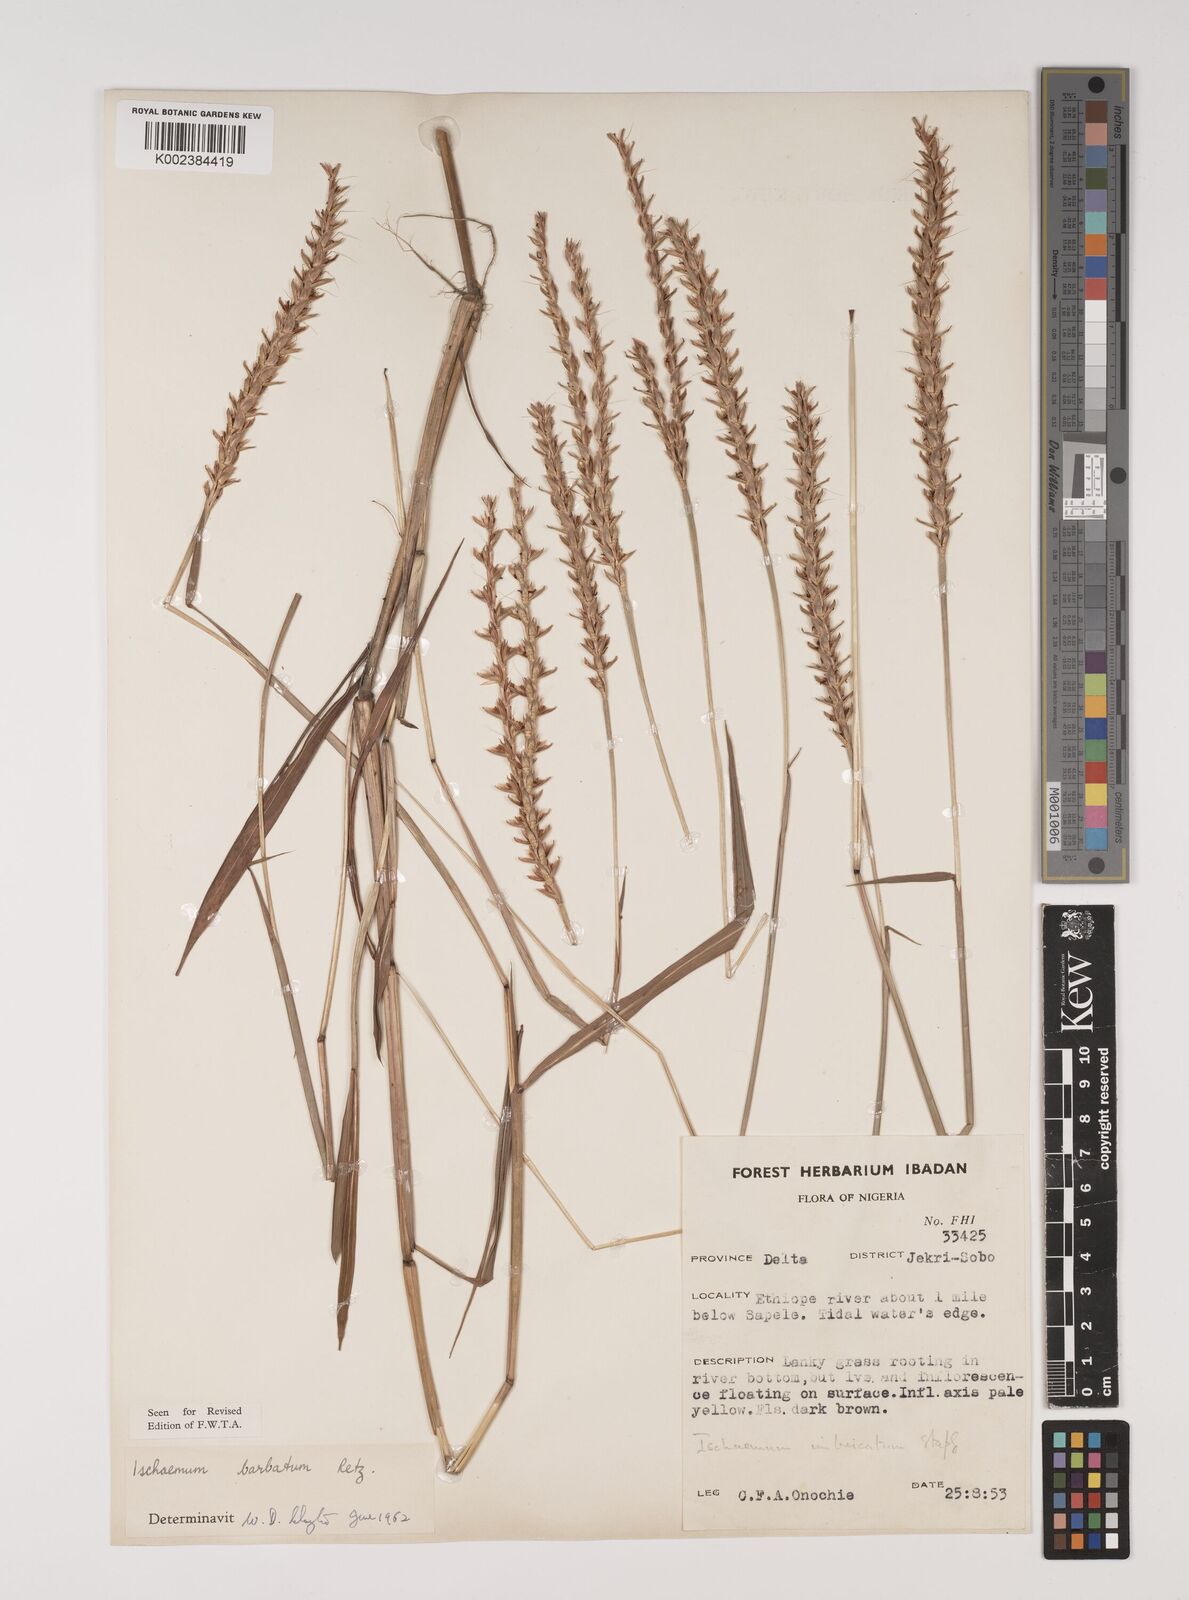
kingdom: Plantae
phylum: Tracheophyta
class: Liliopsida
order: Poales
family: Poaceae
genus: Ischaemum
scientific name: Ischaemum barbatum
